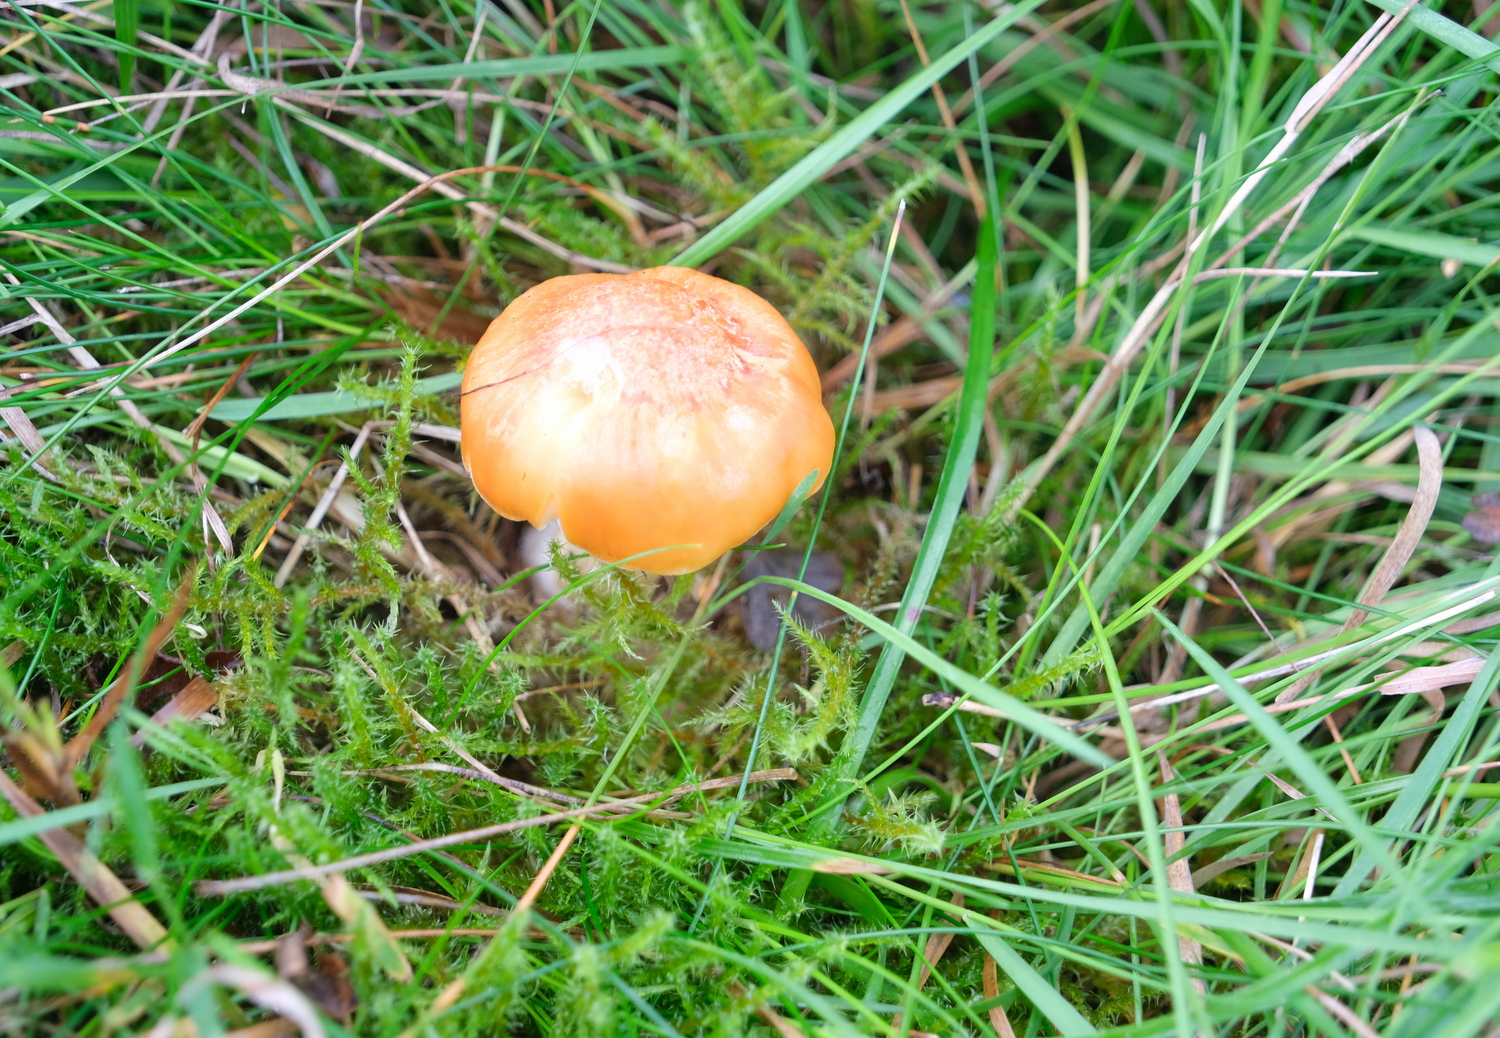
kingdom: Fungi
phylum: Basidiomycota
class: Agaricomycetes
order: Agaricales
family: Hygrophoraceae
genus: Cuphophyllus
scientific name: Cuphophyllus pratensis
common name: eng-vokshat
